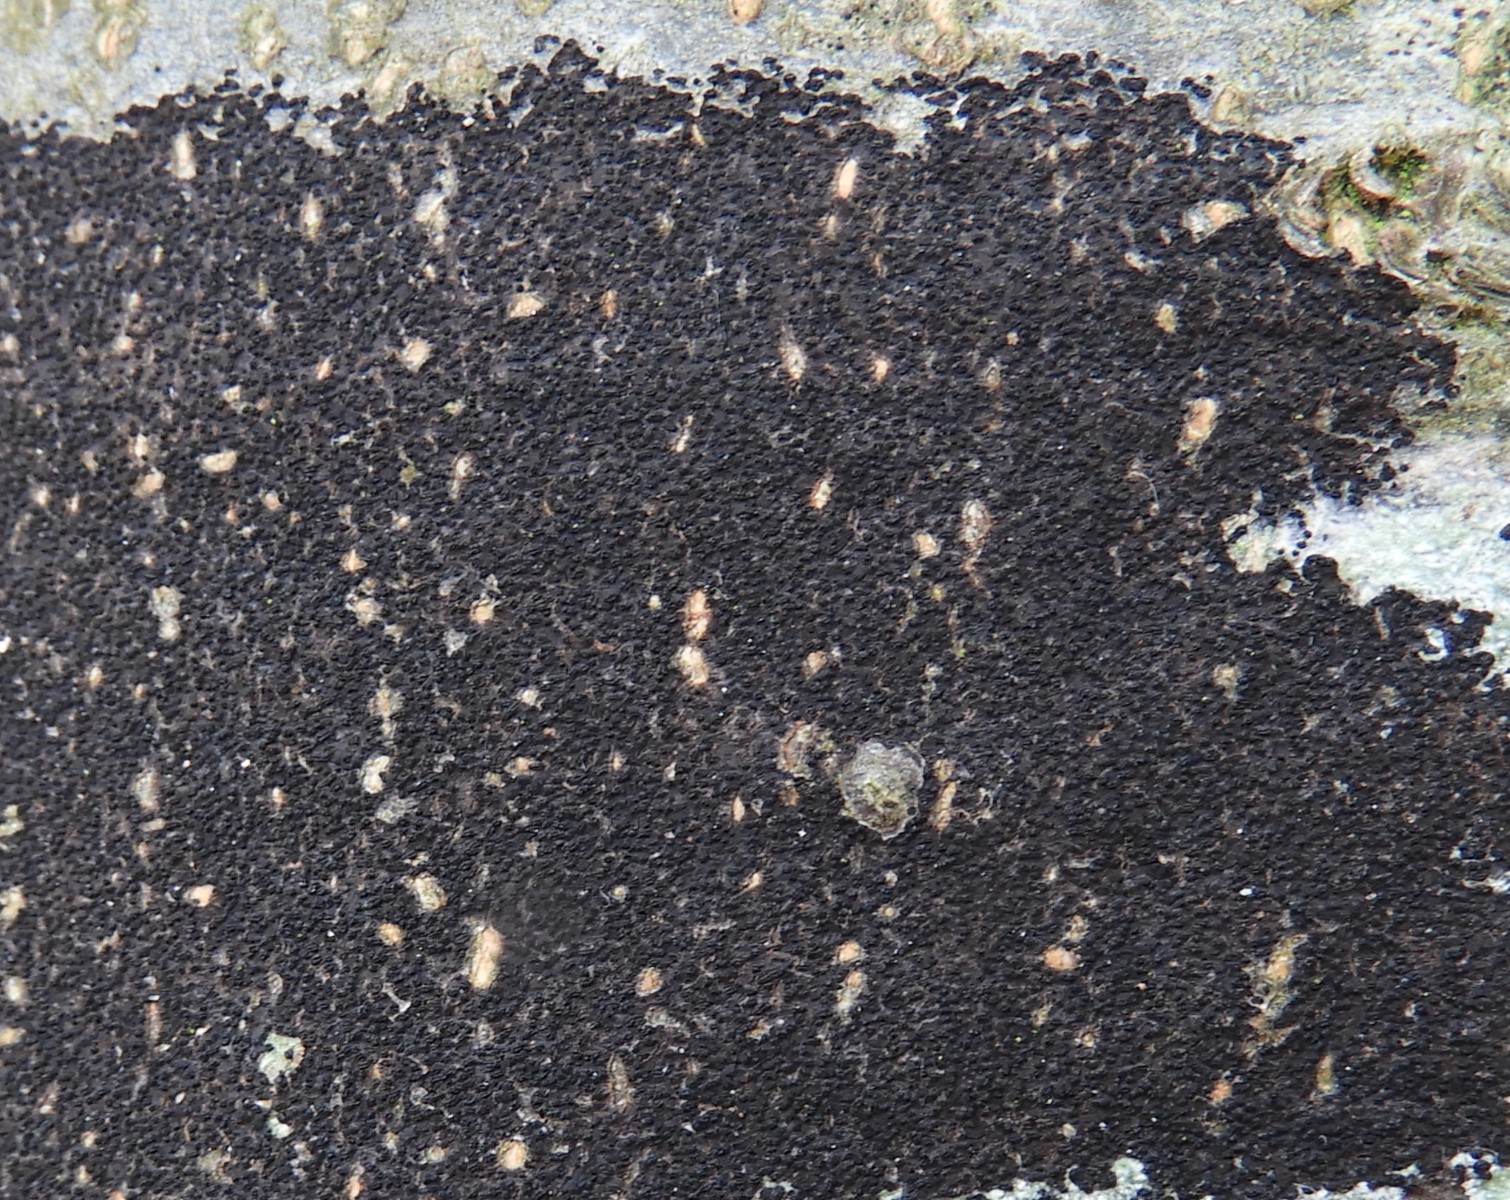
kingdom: Fungi
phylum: Ascomycota
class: Leotiomycetes
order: Rhytismatales
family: Ascodichaenaceae
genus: Ascodichaena
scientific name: Ascodichaena rugosa
